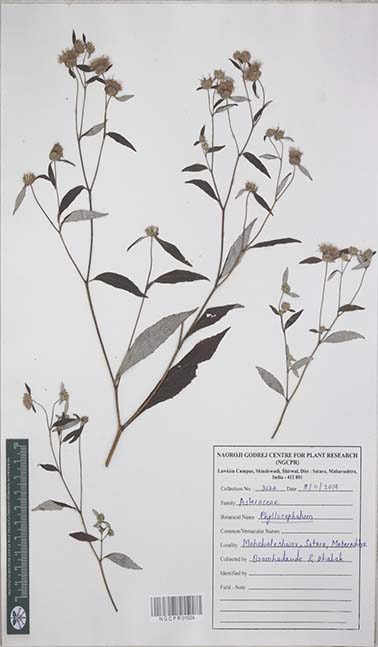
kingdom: Plantae
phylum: Tracheophyta
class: Magnoliopsida
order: Asterales
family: Asteraceae
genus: Phyllocephalum
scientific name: Phyllocephalum
